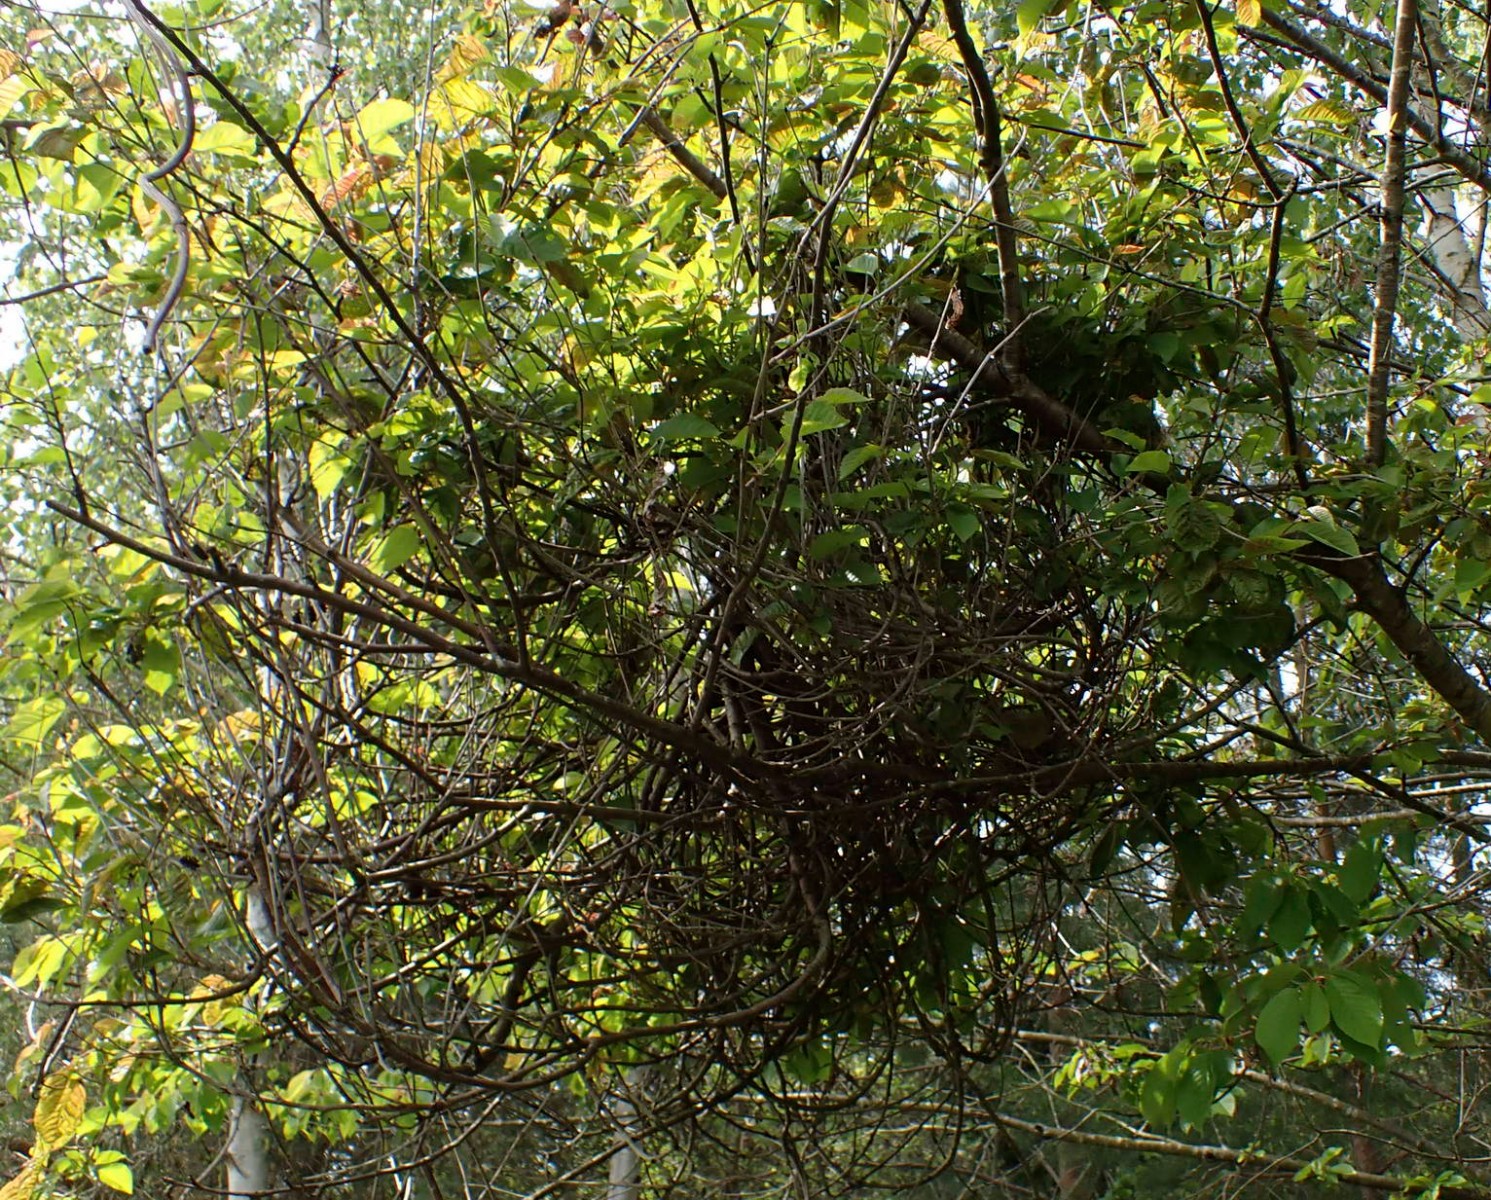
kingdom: Fungi
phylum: Ascomycota
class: Taphrinomycetes
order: Taphrinales
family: Taphrinaceae
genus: Taphrina
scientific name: Taphrina wiesneri
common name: Cherry leaf curl
